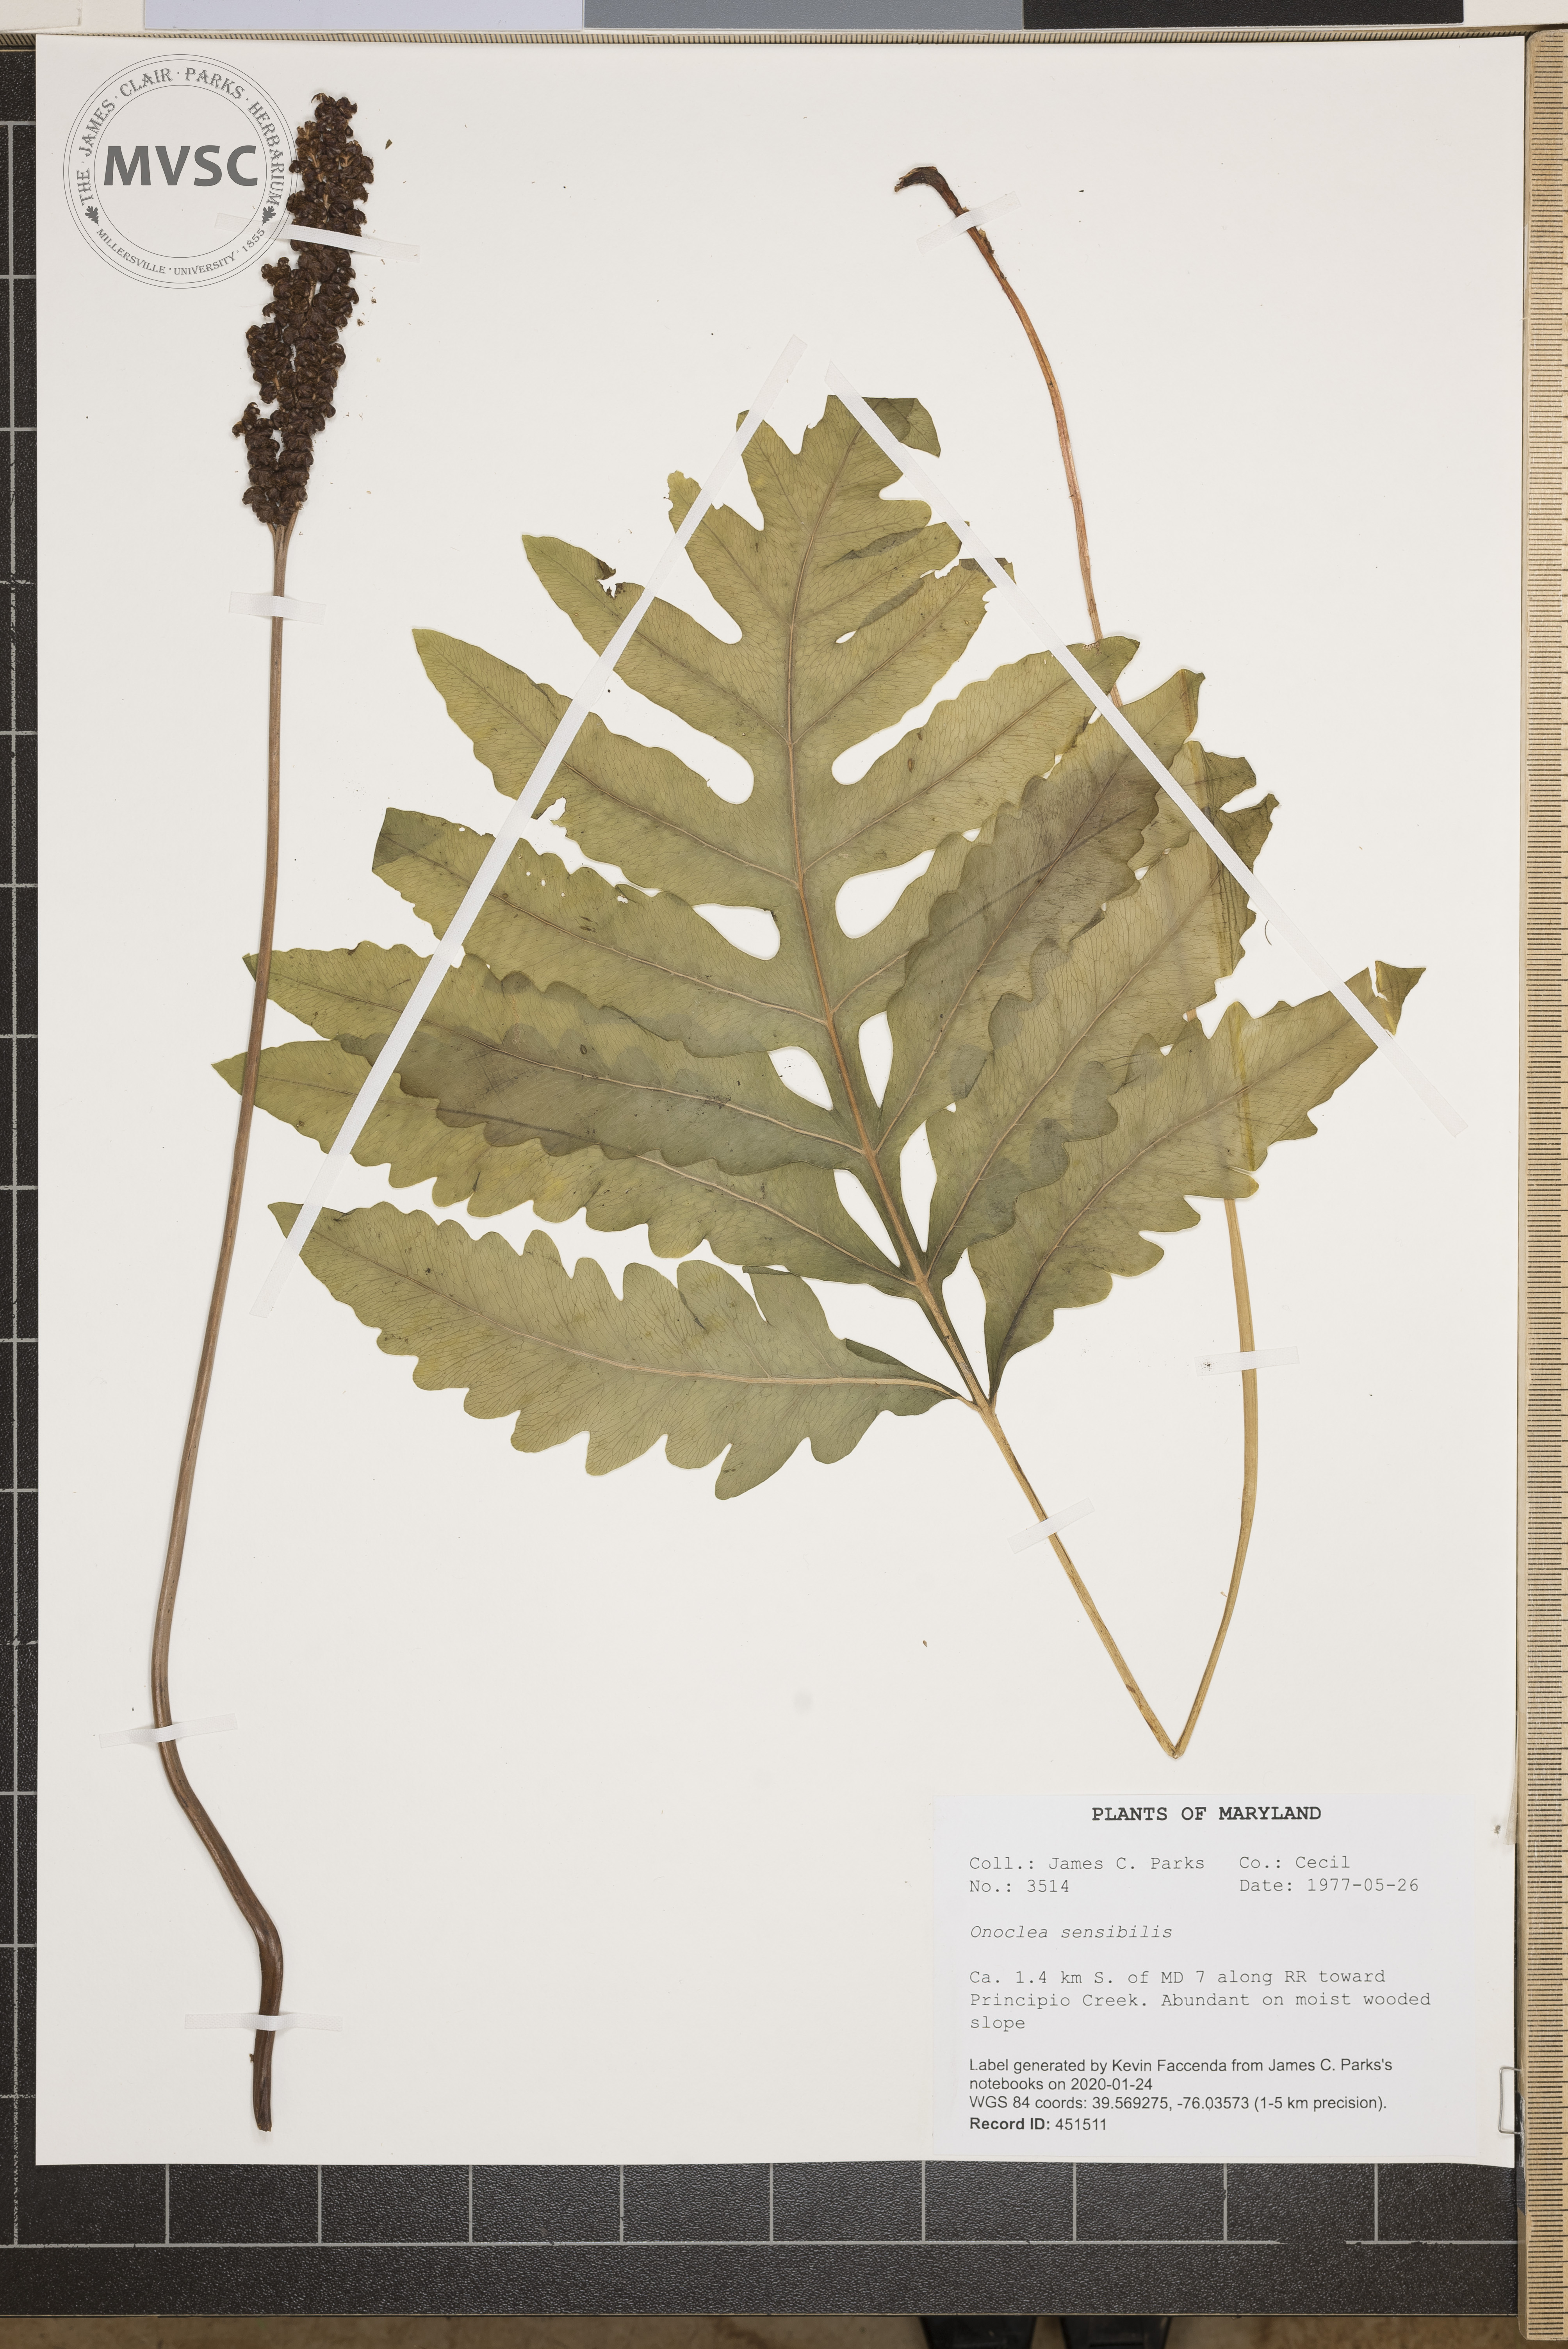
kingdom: Plantae
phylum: Tracheophyta
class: Polypodiopsida
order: Polypodiales
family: Onocleaceae
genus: Onoclea
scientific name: Onoclea sensibilis
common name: Sensitive fern
